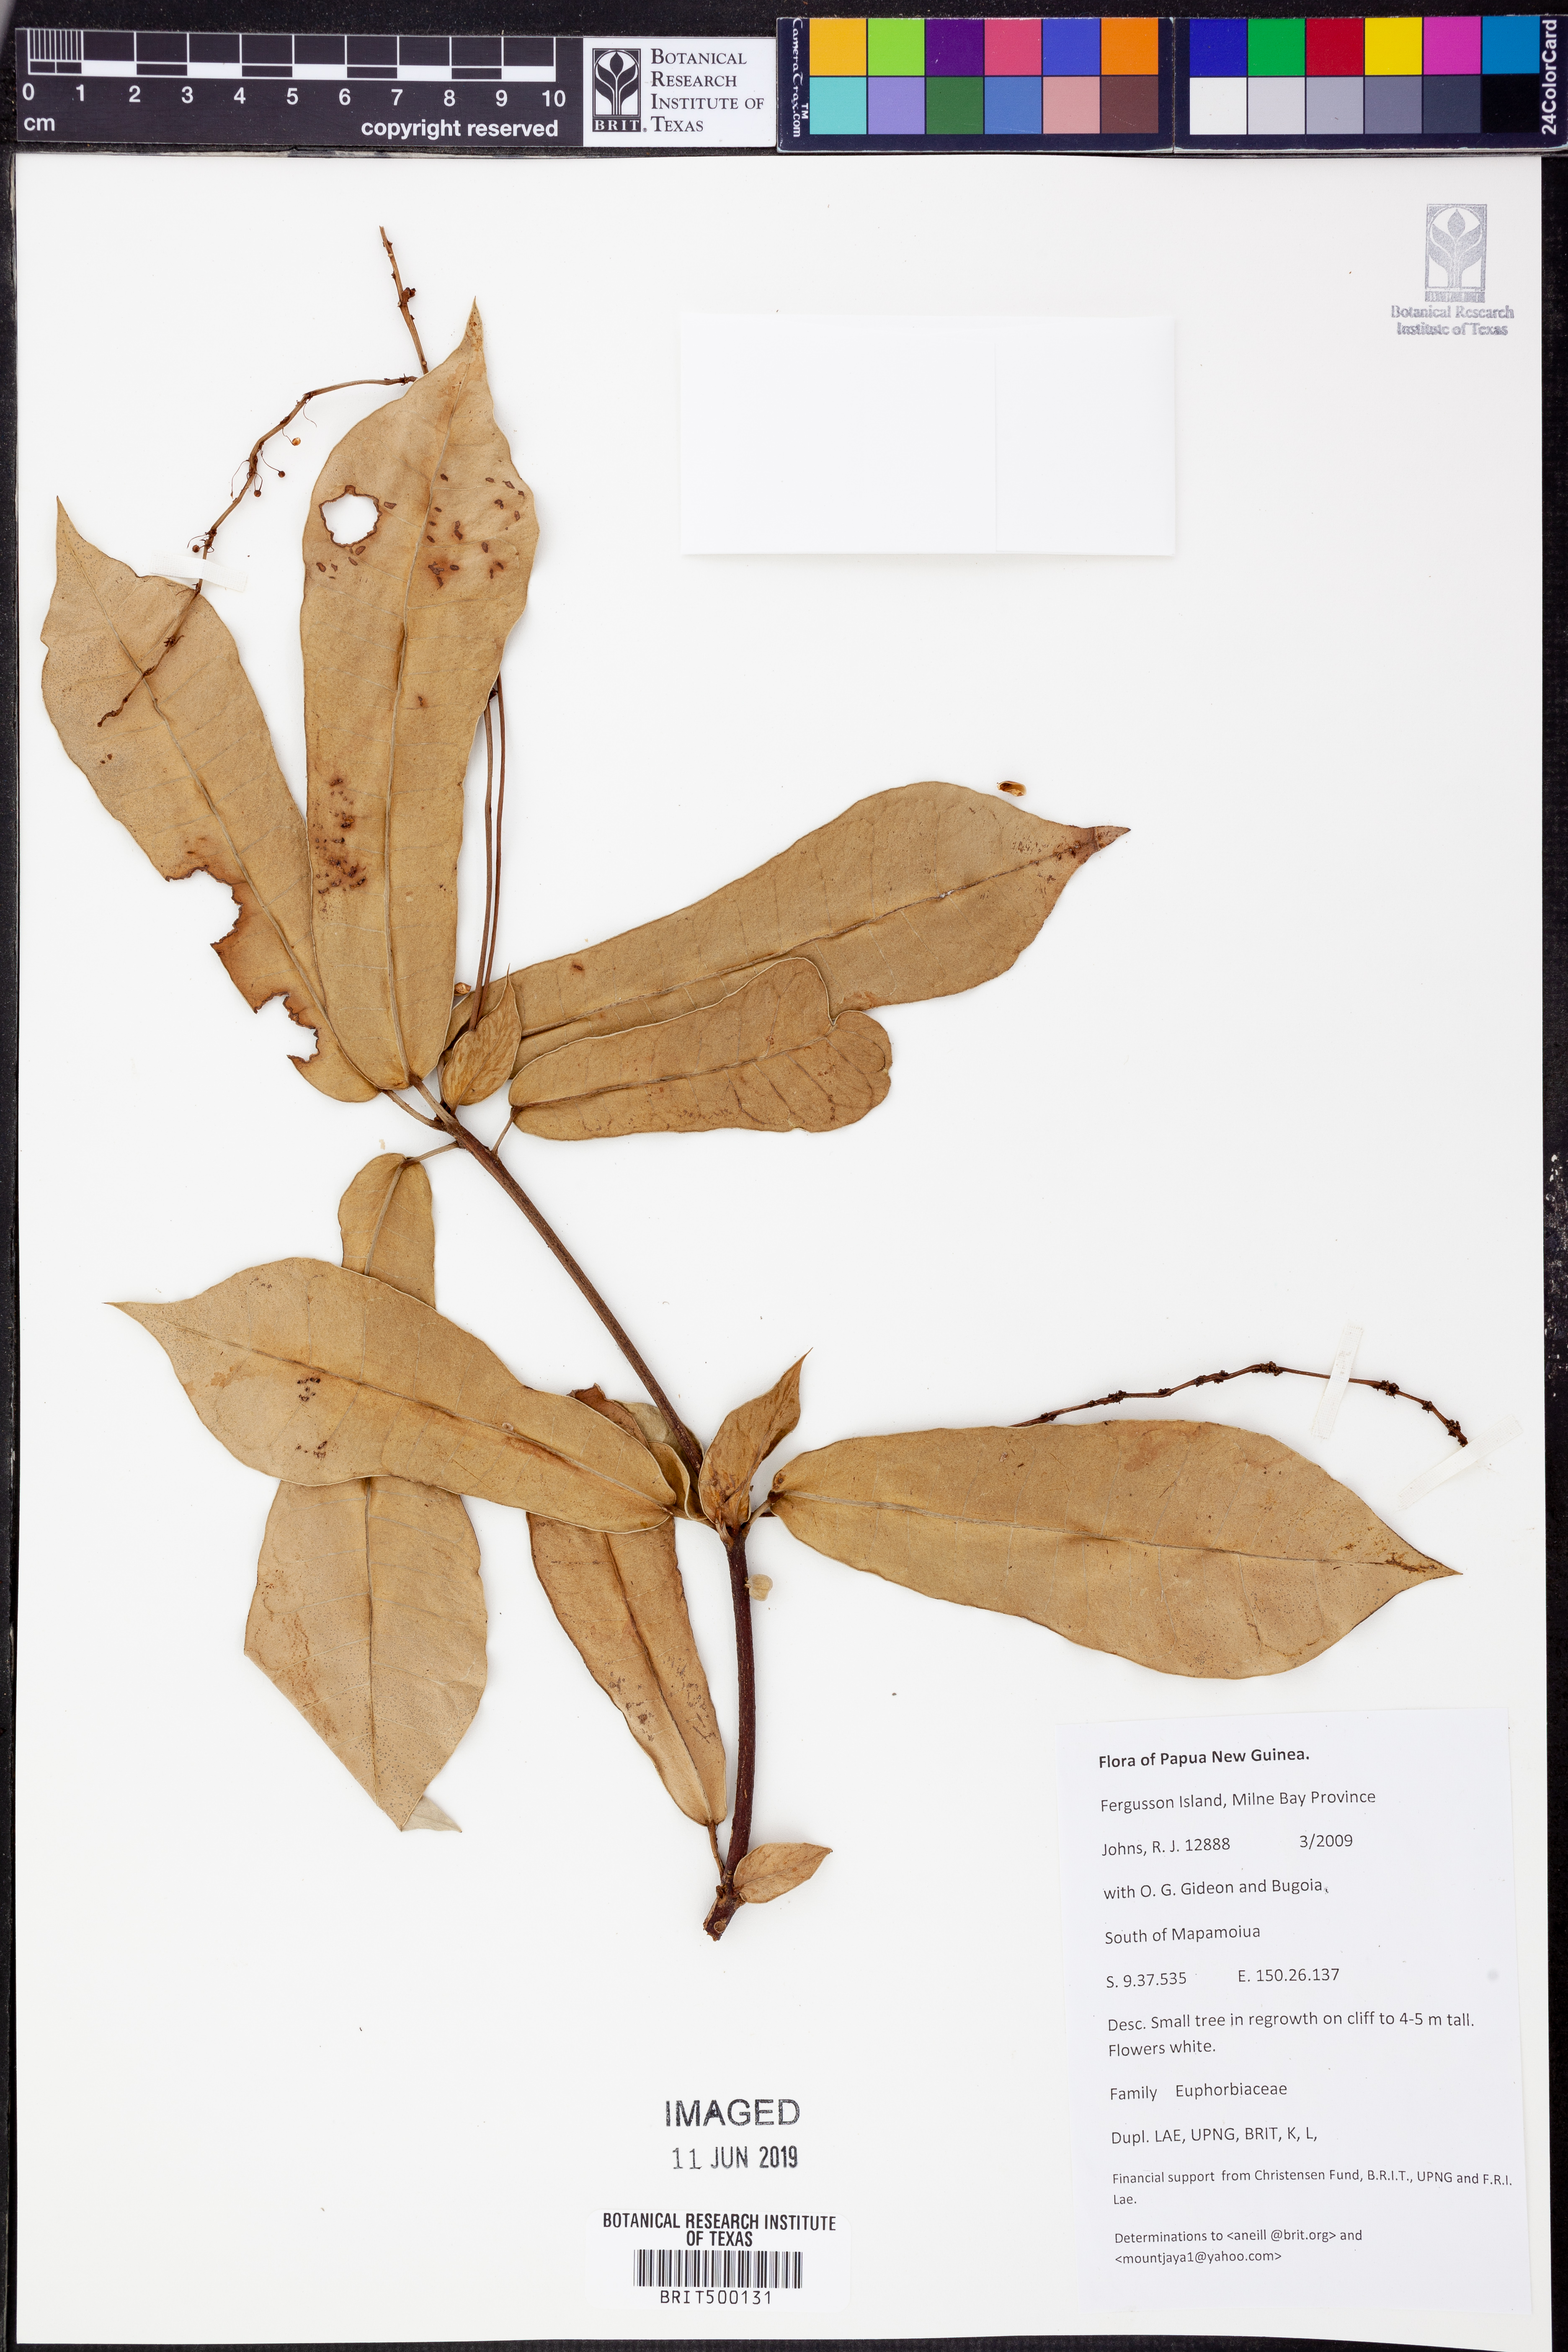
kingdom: Plantae
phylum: Tracheophyta
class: Magnoliopsida
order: Malpighiales
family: Euphorbiaceae
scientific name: Euphorbiaceae
